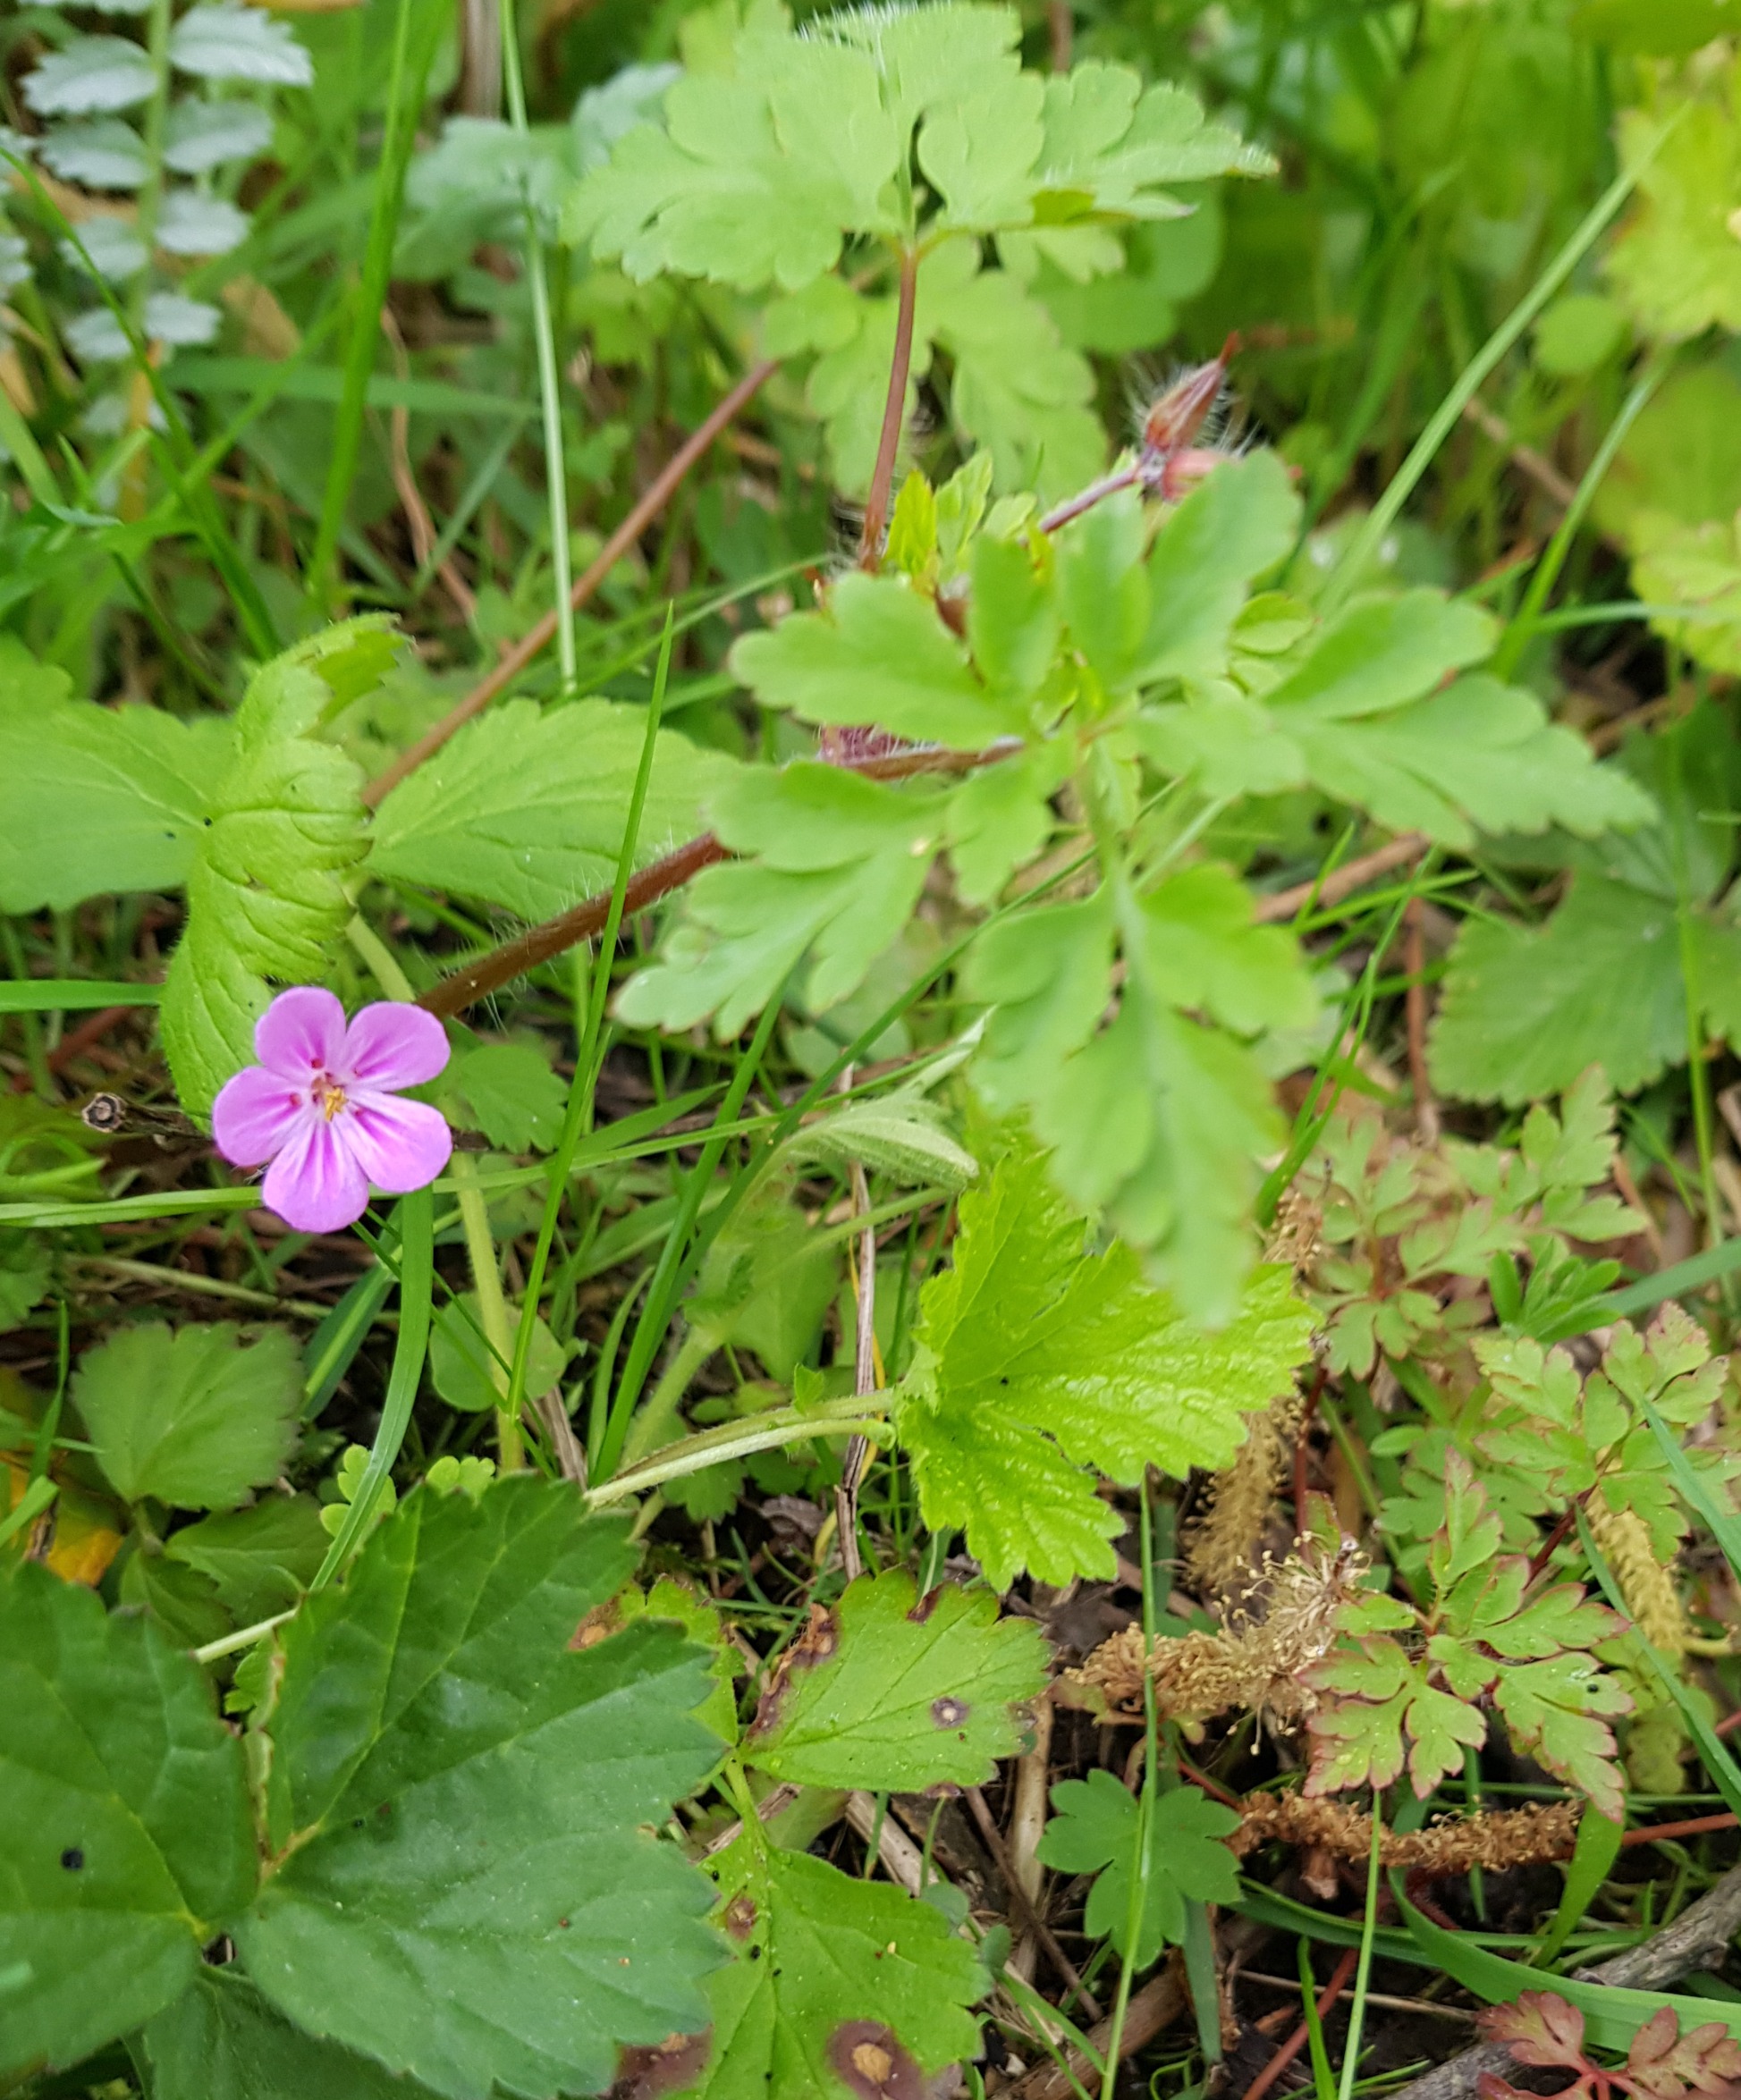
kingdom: Plantae
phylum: Tracheophyta
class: Magnoliopsida
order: Geraniales
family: Geraniaceae
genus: Geranium
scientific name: Geranium robertianum
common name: Stinkende storkenæb
